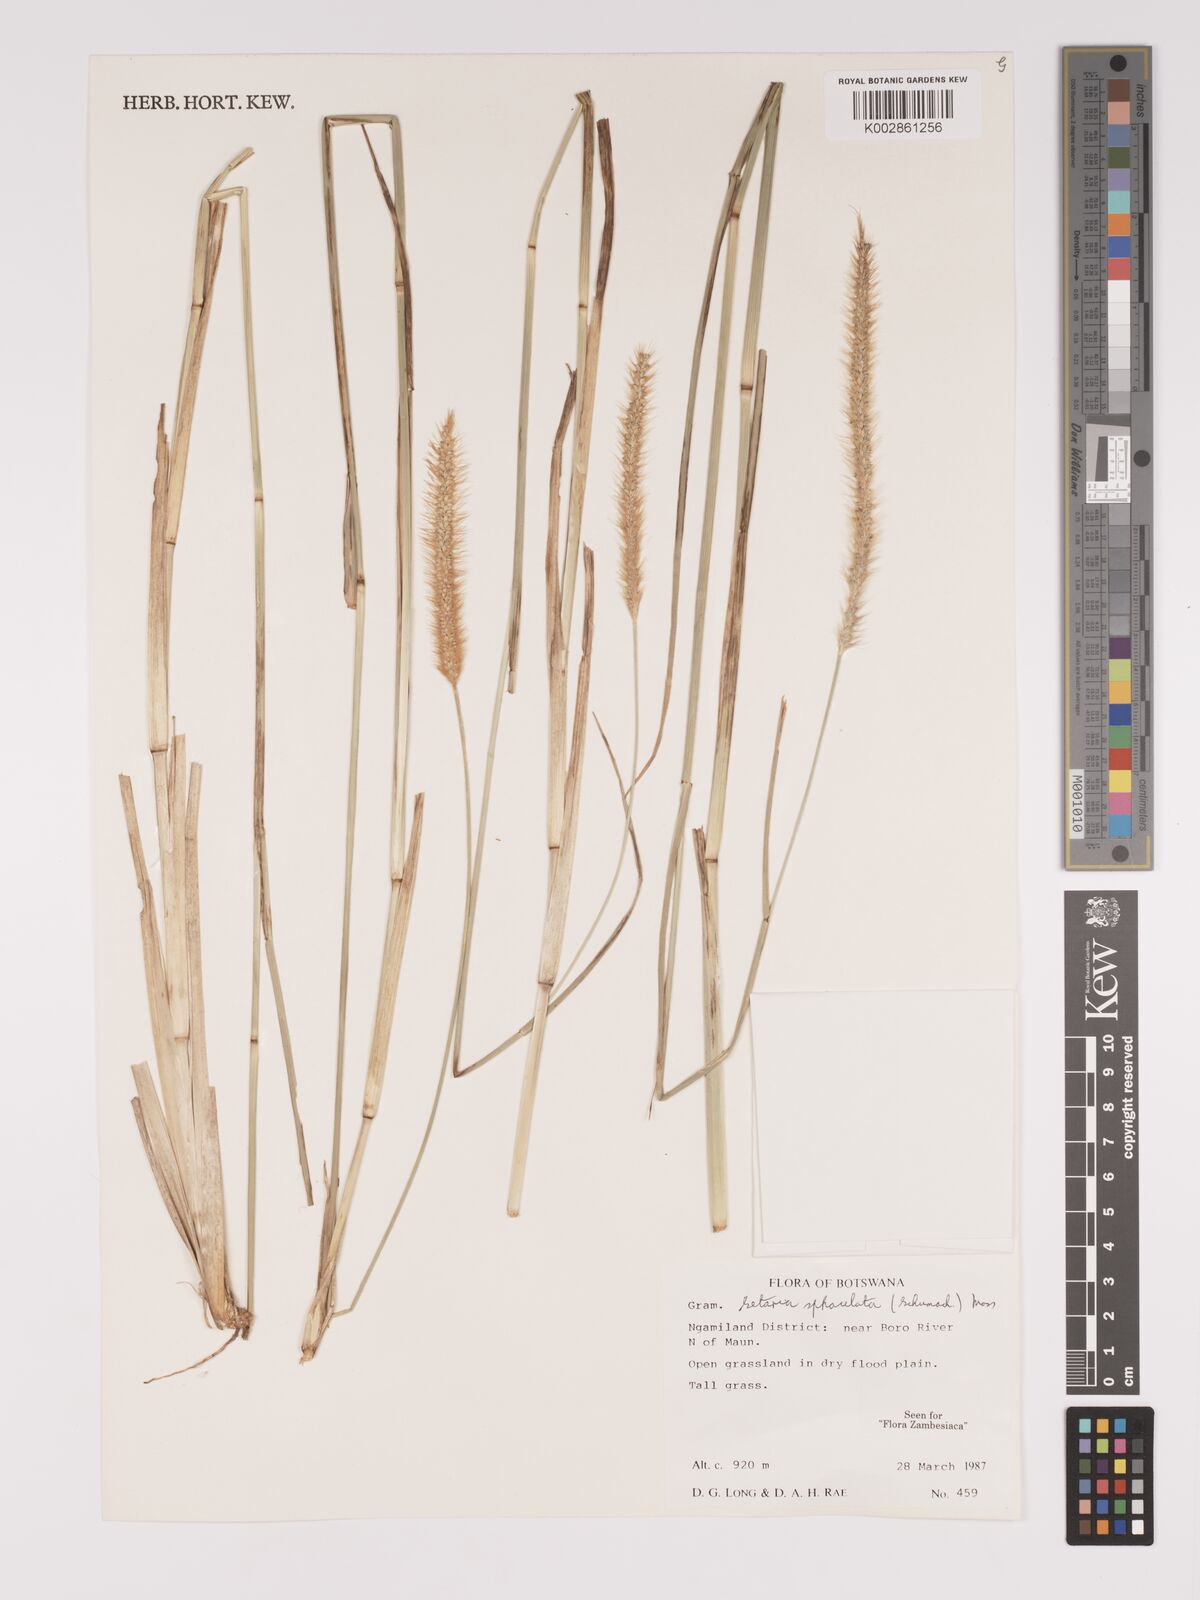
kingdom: Plantae
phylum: Tracheophyta
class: Liliopsida
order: Poales
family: Poaceae
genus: Setaria
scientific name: Setaria sphacelata
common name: African bristlegrass
